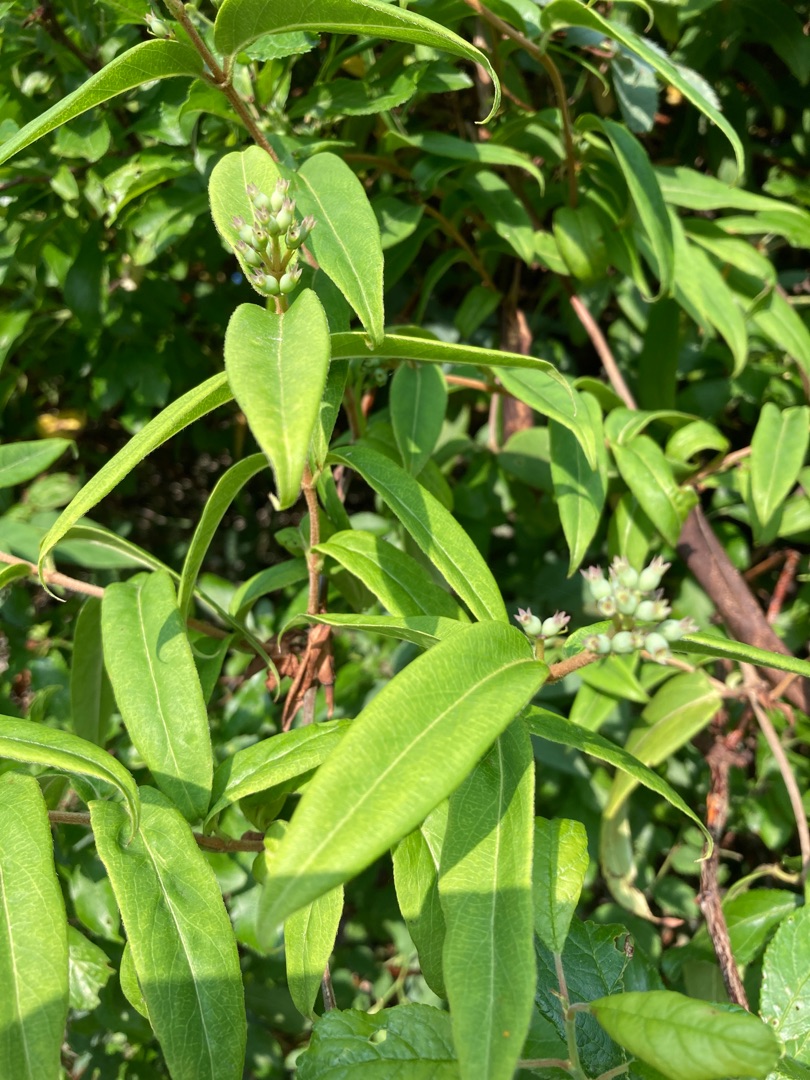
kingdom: Plantae
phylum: Tracheophyta
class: Magnoliopsida
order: Dipsacales
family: Caprifoliaceae
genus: Lonicera
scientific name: Lonicera acuminata
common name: Henrys gedeblad
